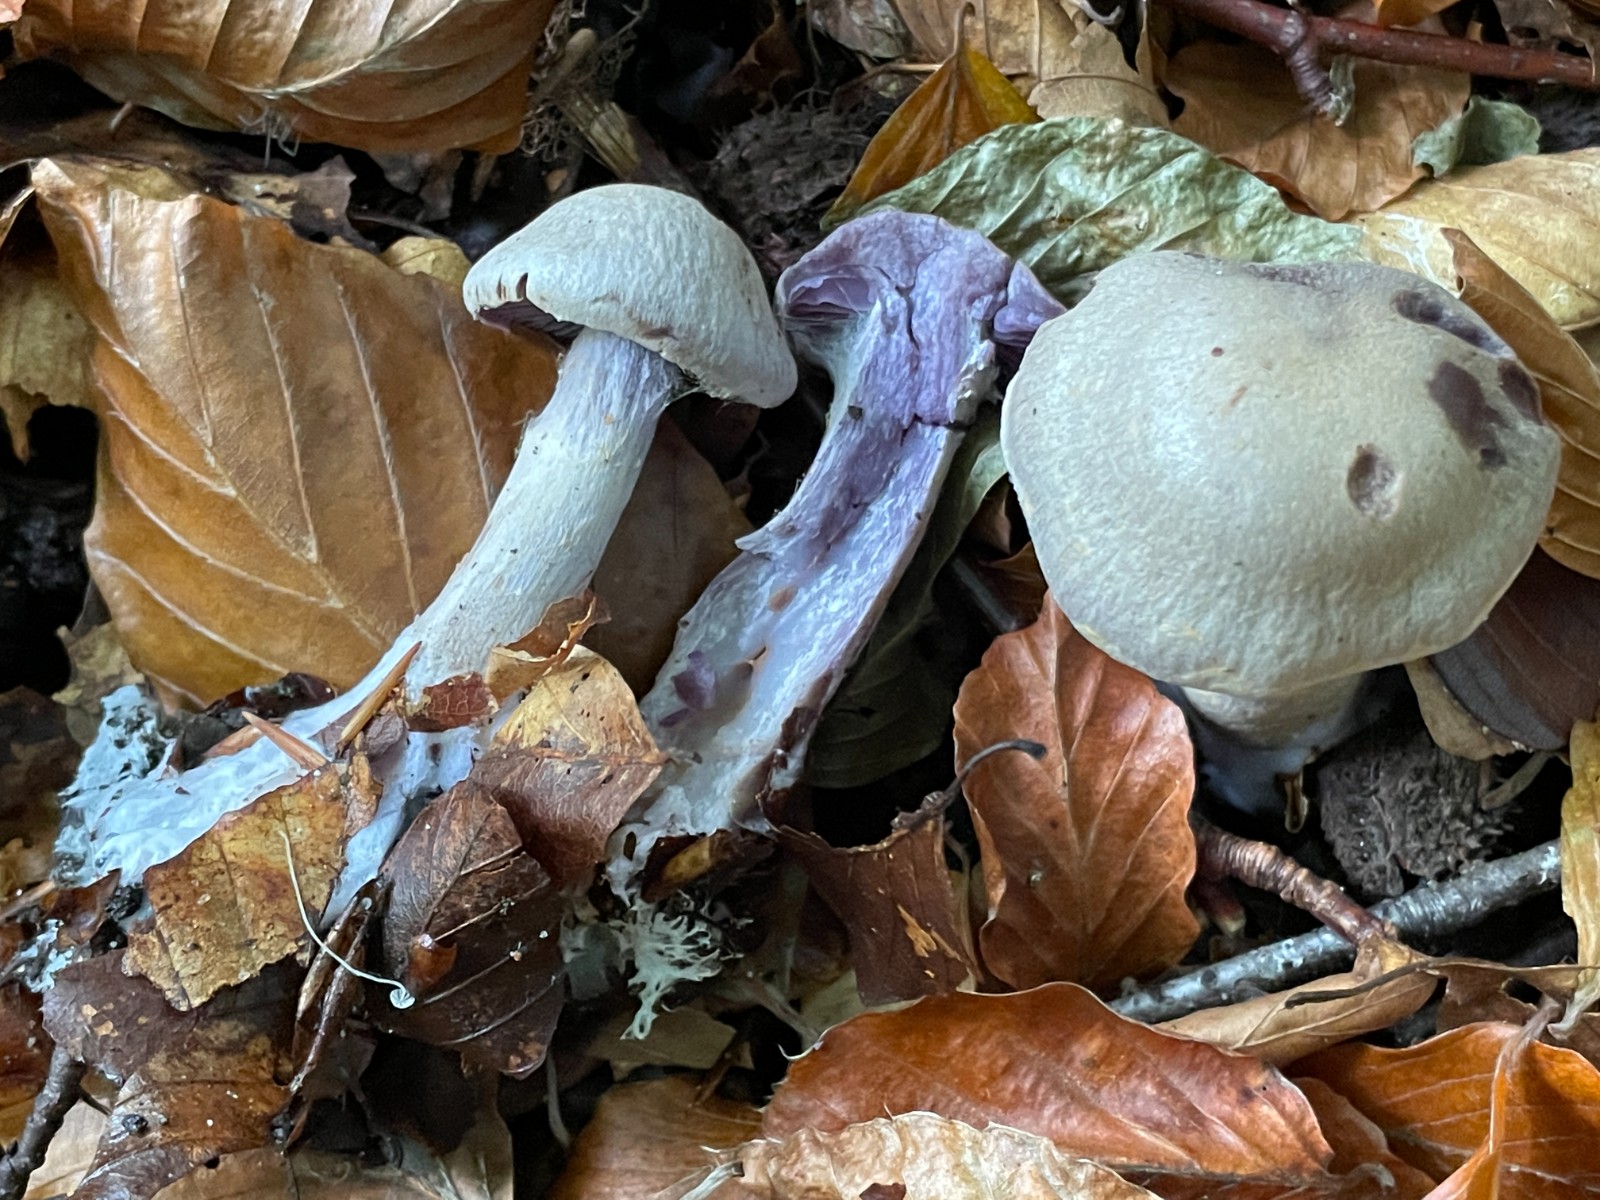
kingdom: Fungi
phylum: Basidiomycota
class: Agaricomycetes
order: Agaricales
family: Cortinariaceae
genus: Cortinarius
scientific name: Cortinarius
